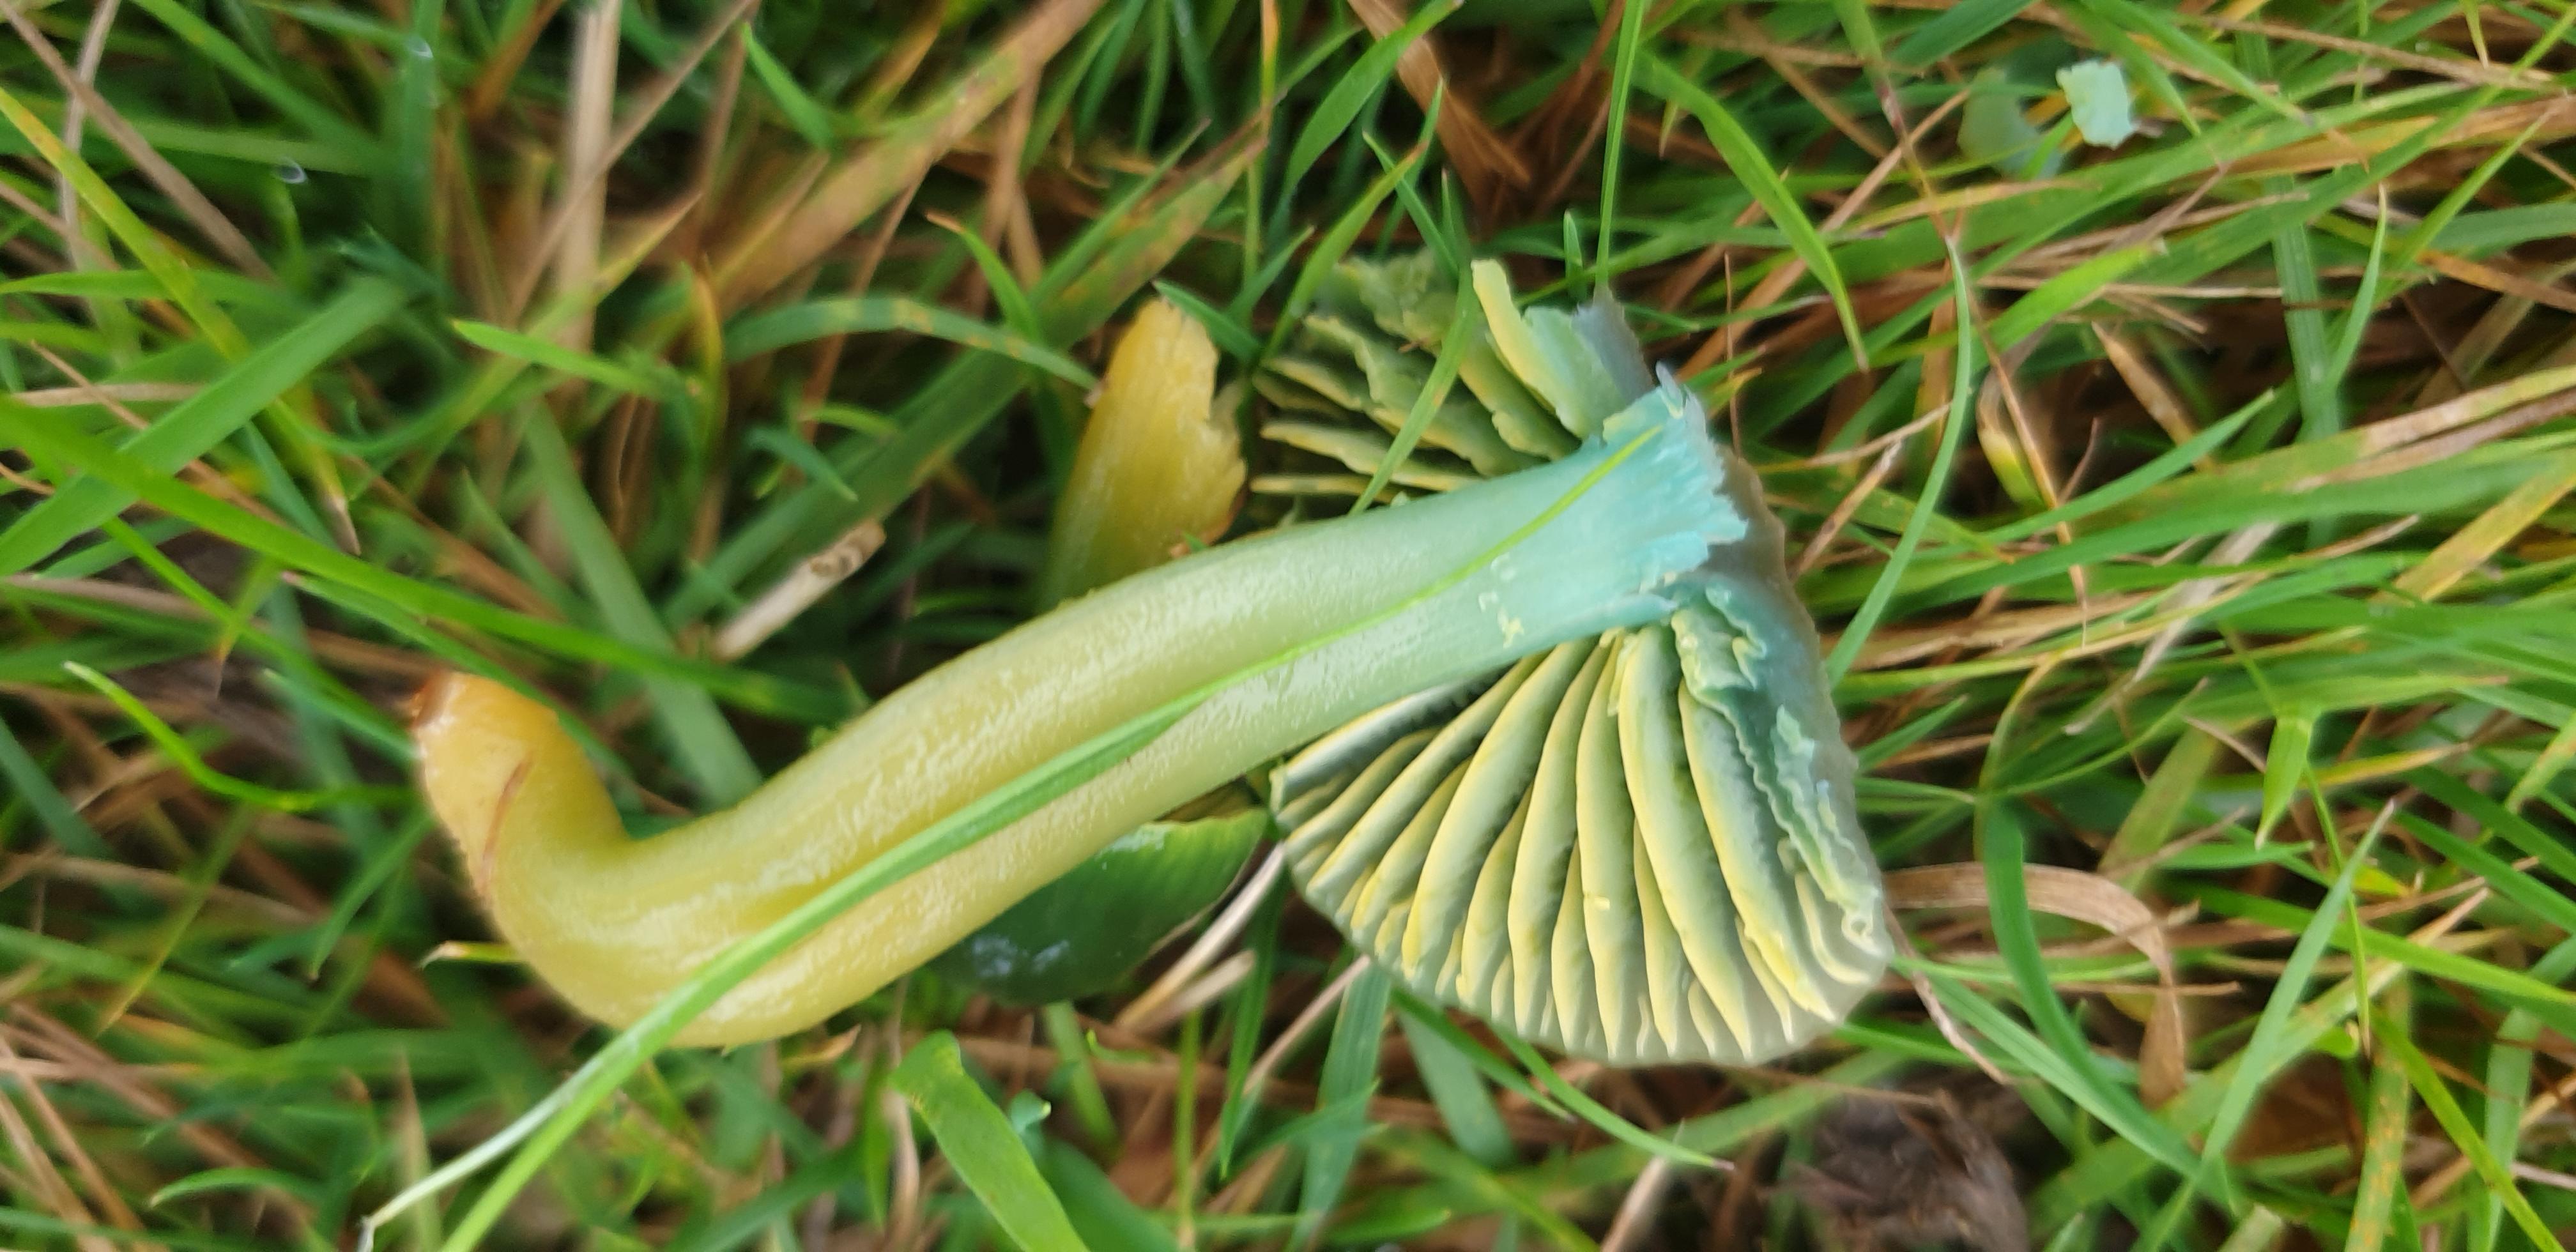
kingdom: Fungi
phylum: Basidiomycota
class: Agaricomycetes
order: Agaricales
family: Hygrophoraceae
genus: Gliophorus
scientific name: Gliophorus psittacinus
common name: papegøje-vokshat
